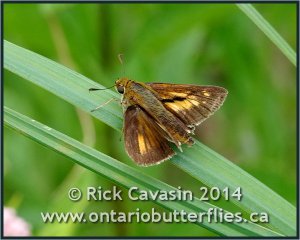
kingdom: Animalia
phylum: Arthropoda
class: Insecta
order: Lepidoptera
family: Hesperiidae
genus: Euphyes
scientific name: Euphyes dion
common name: Dion Skipper
